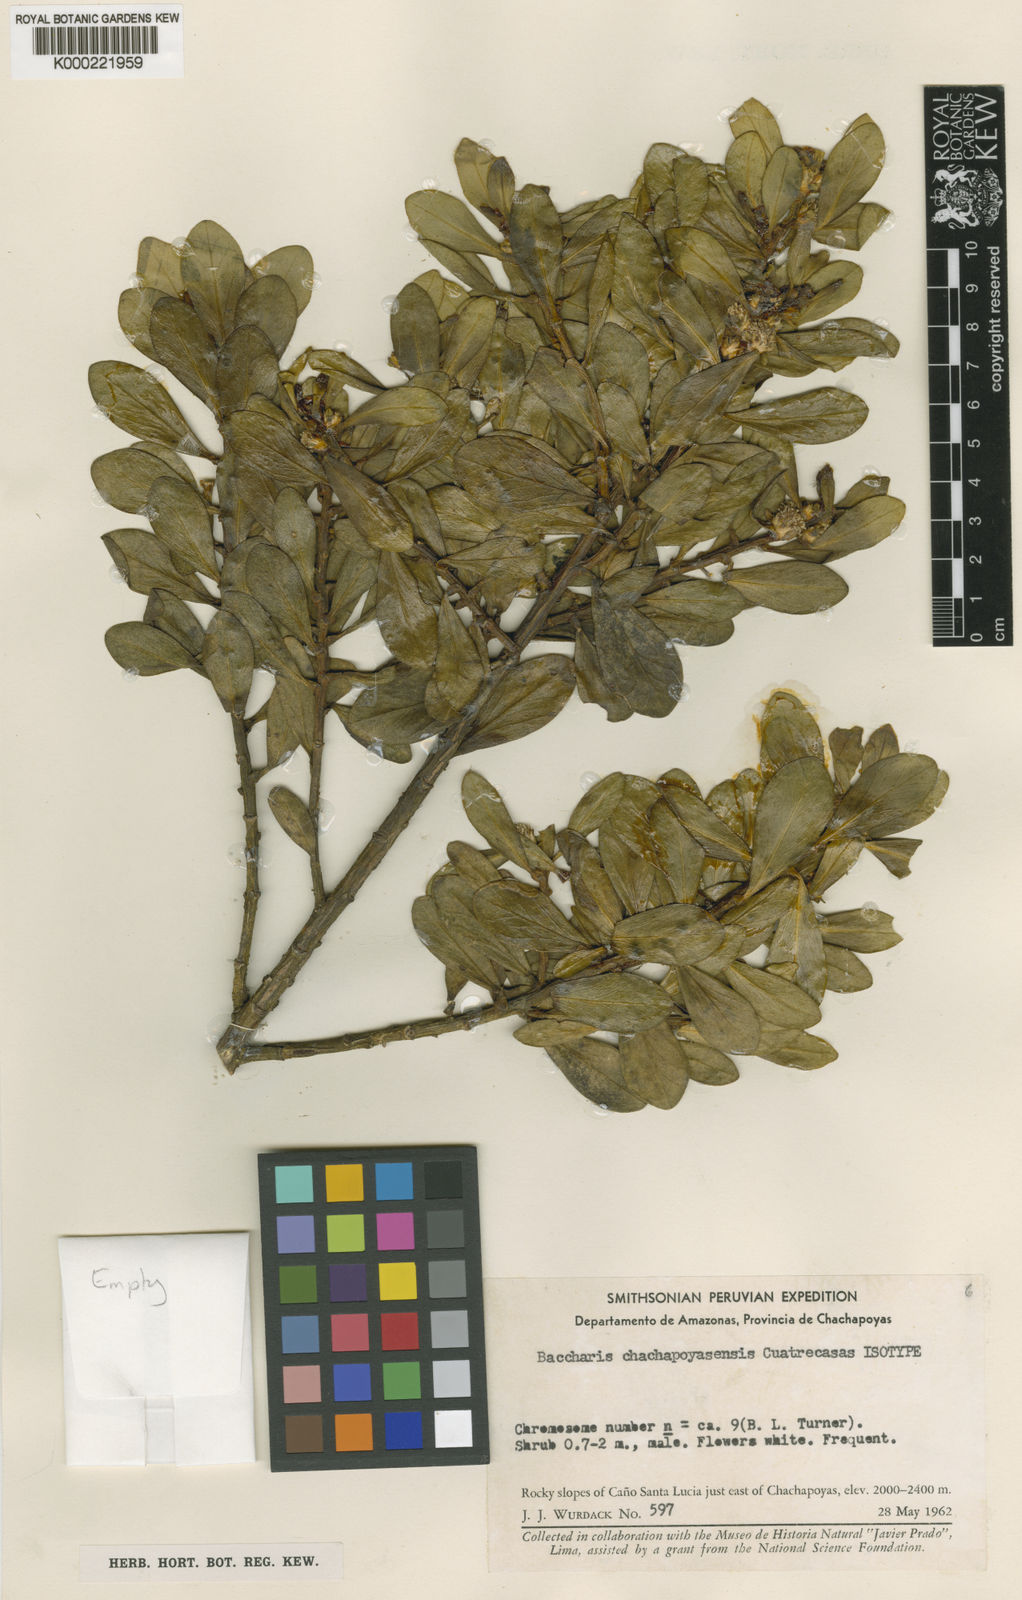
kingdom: Plantae
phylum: Tracheophyta
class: Magnoliopsida
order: Asterales
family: Asteraceae
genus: Baccharis
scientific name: Baccharis chachapoyasensis
